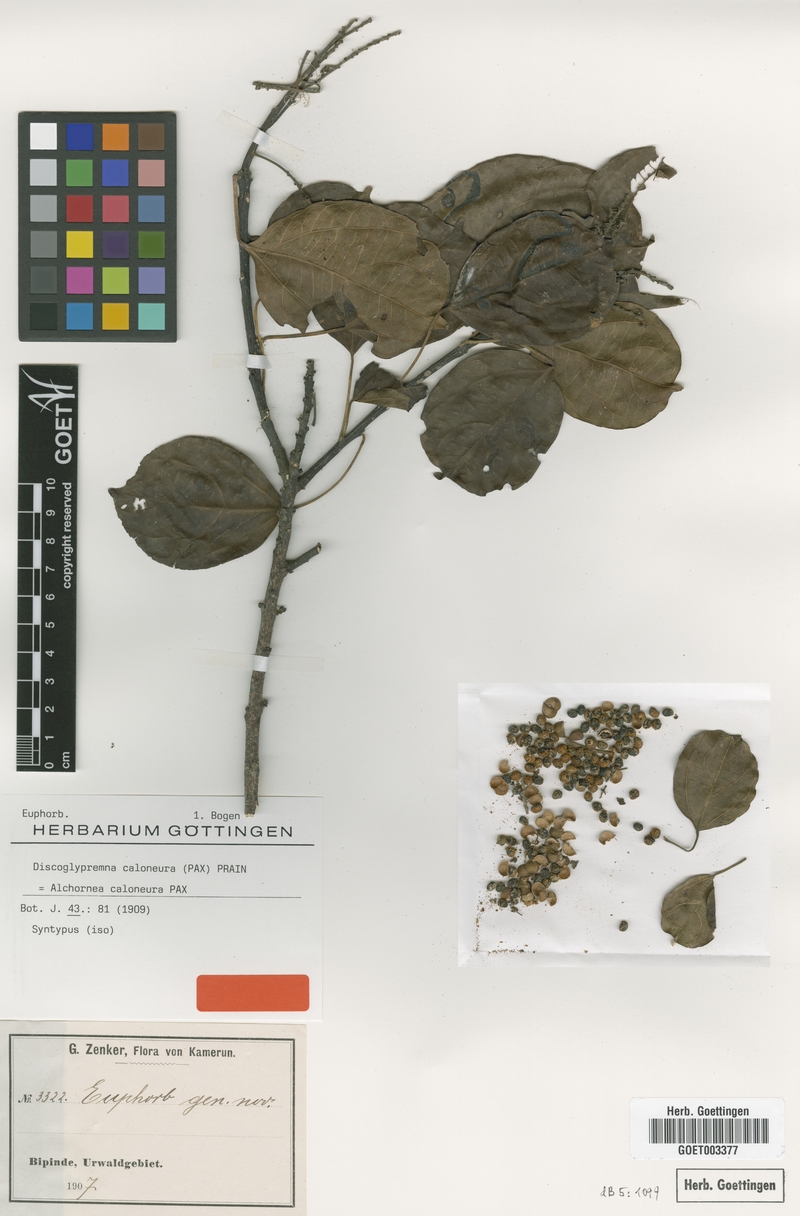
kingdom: Plantae
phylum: Tracheophyta
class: Magnoliopsida
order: Malpighiales
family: Euphorbiaceae
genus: Discoglypremna
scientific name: Discoglypremna caloneura
